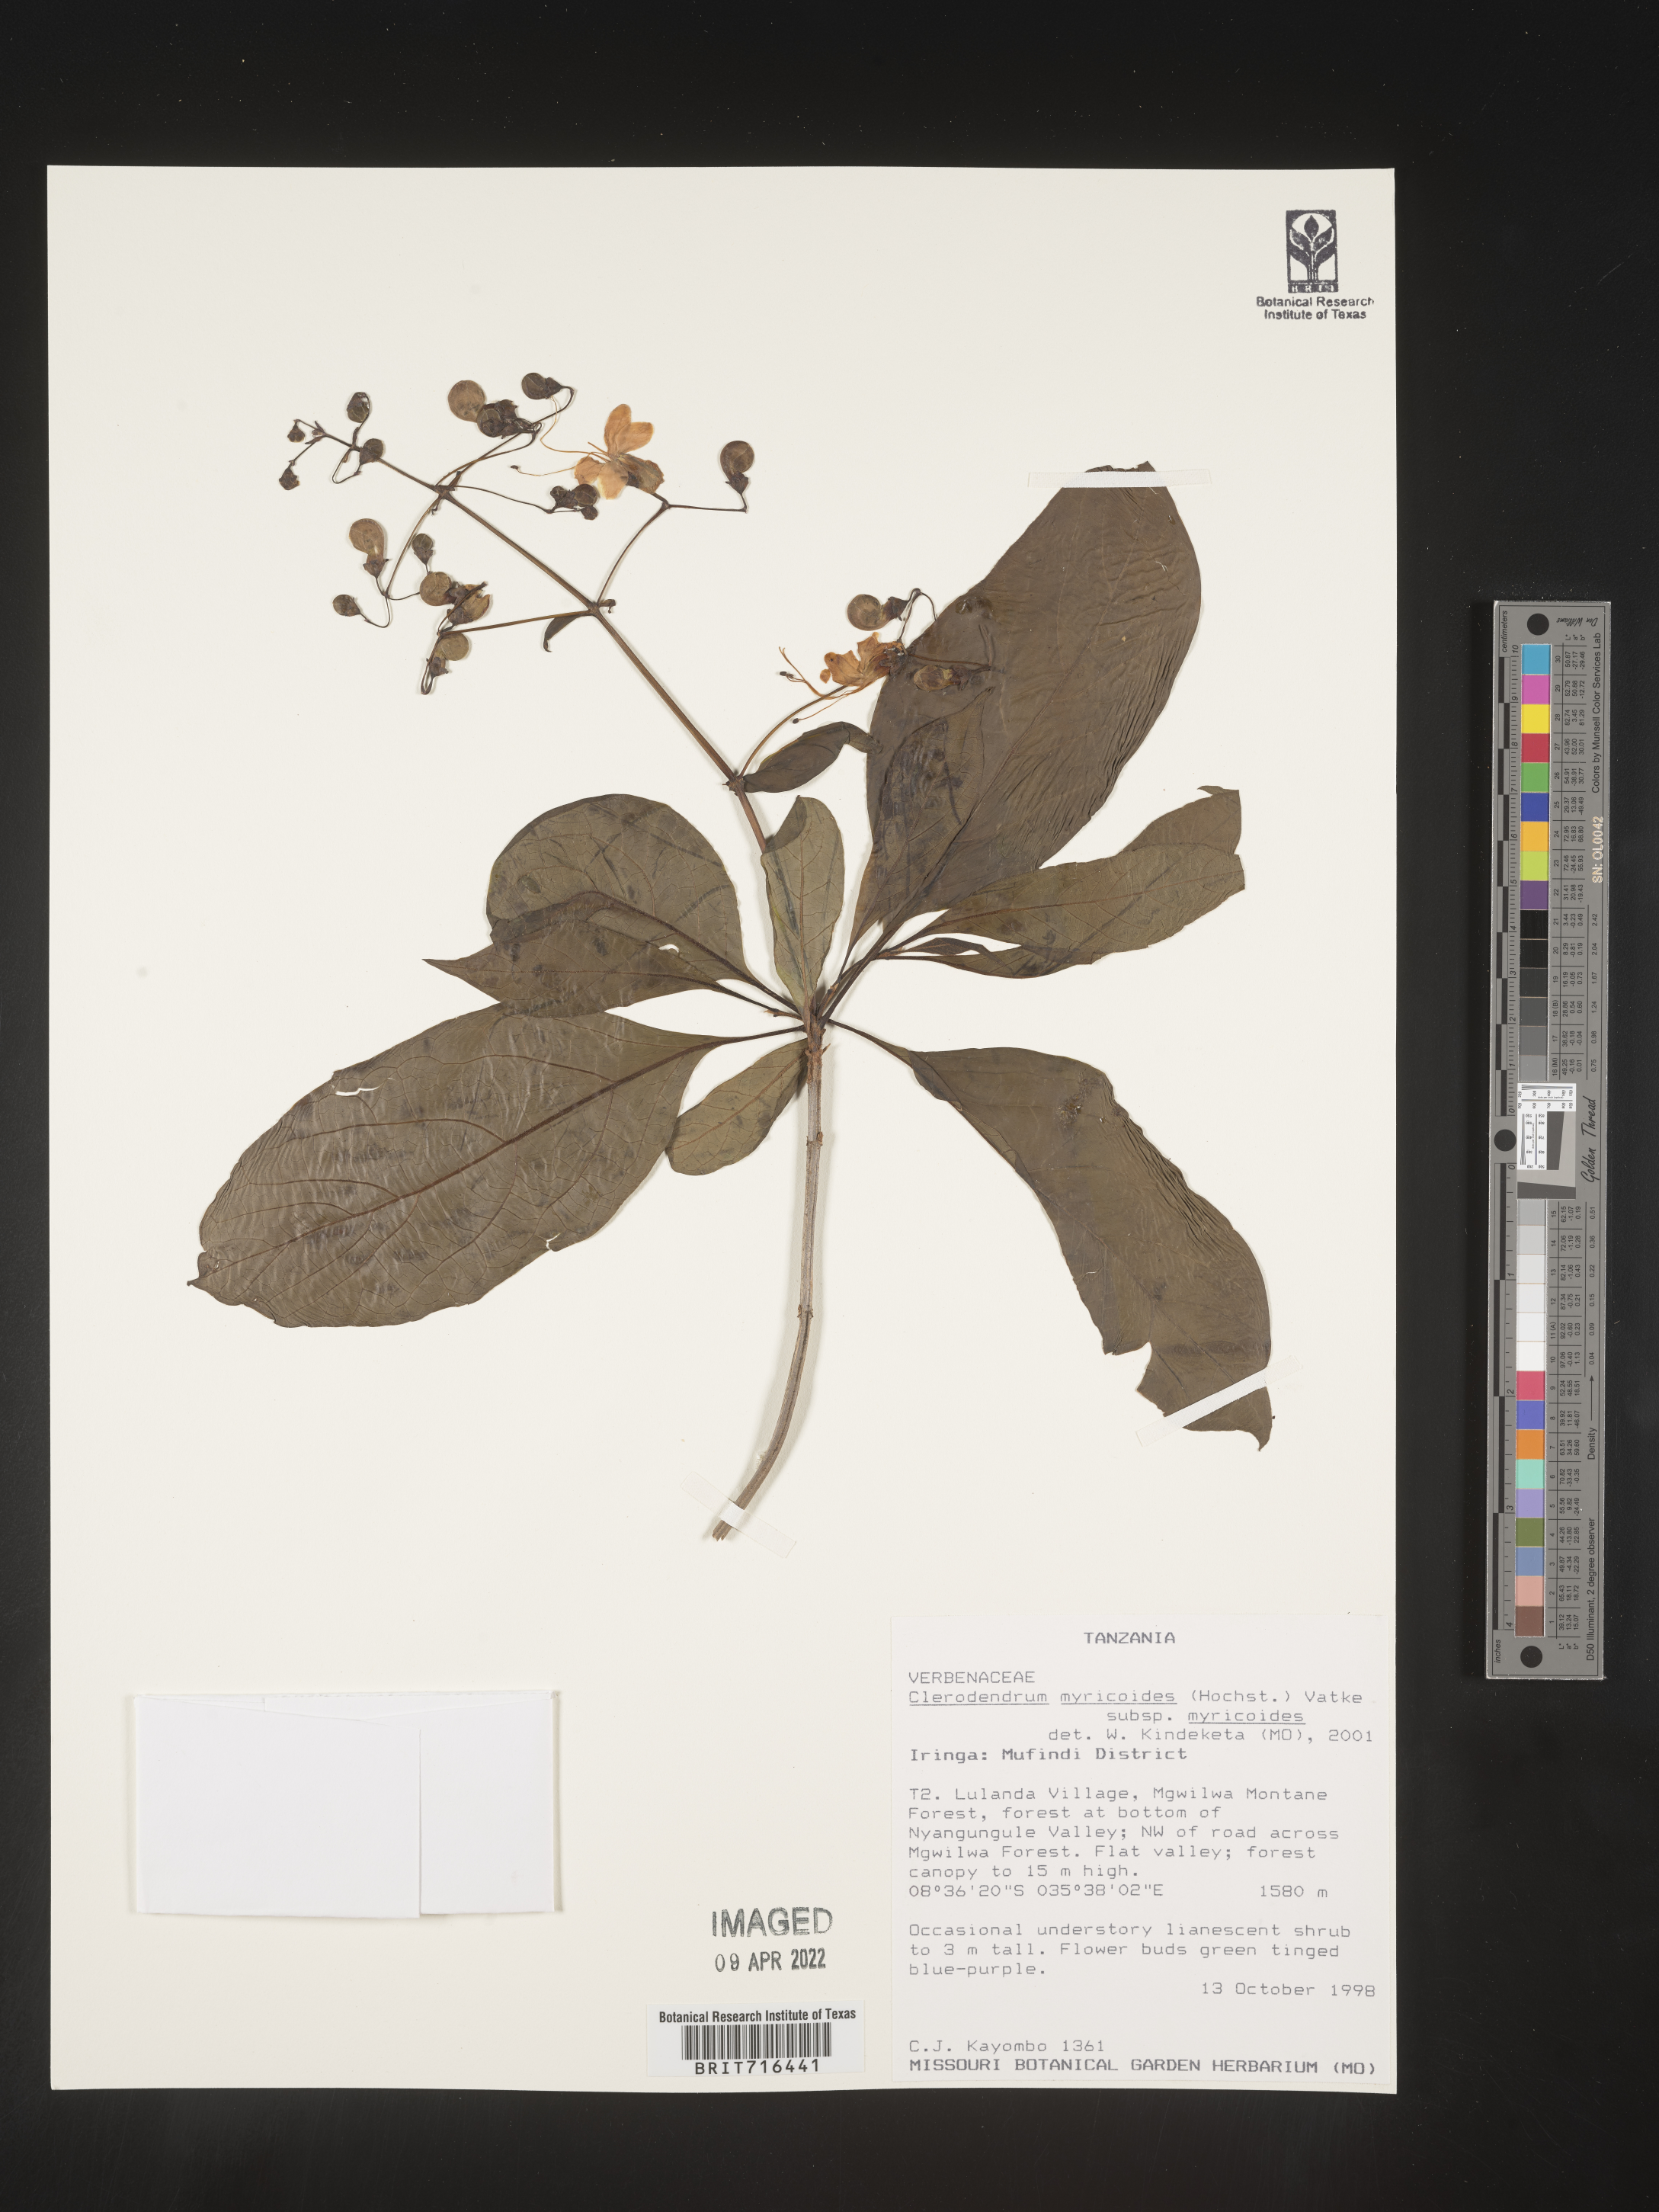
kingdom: Plantae
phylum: Tracheophyta
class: Magnoliopsida
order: Lamiales
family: Lamiaceae
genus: Clerodendrum
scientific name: Clerodendrum
